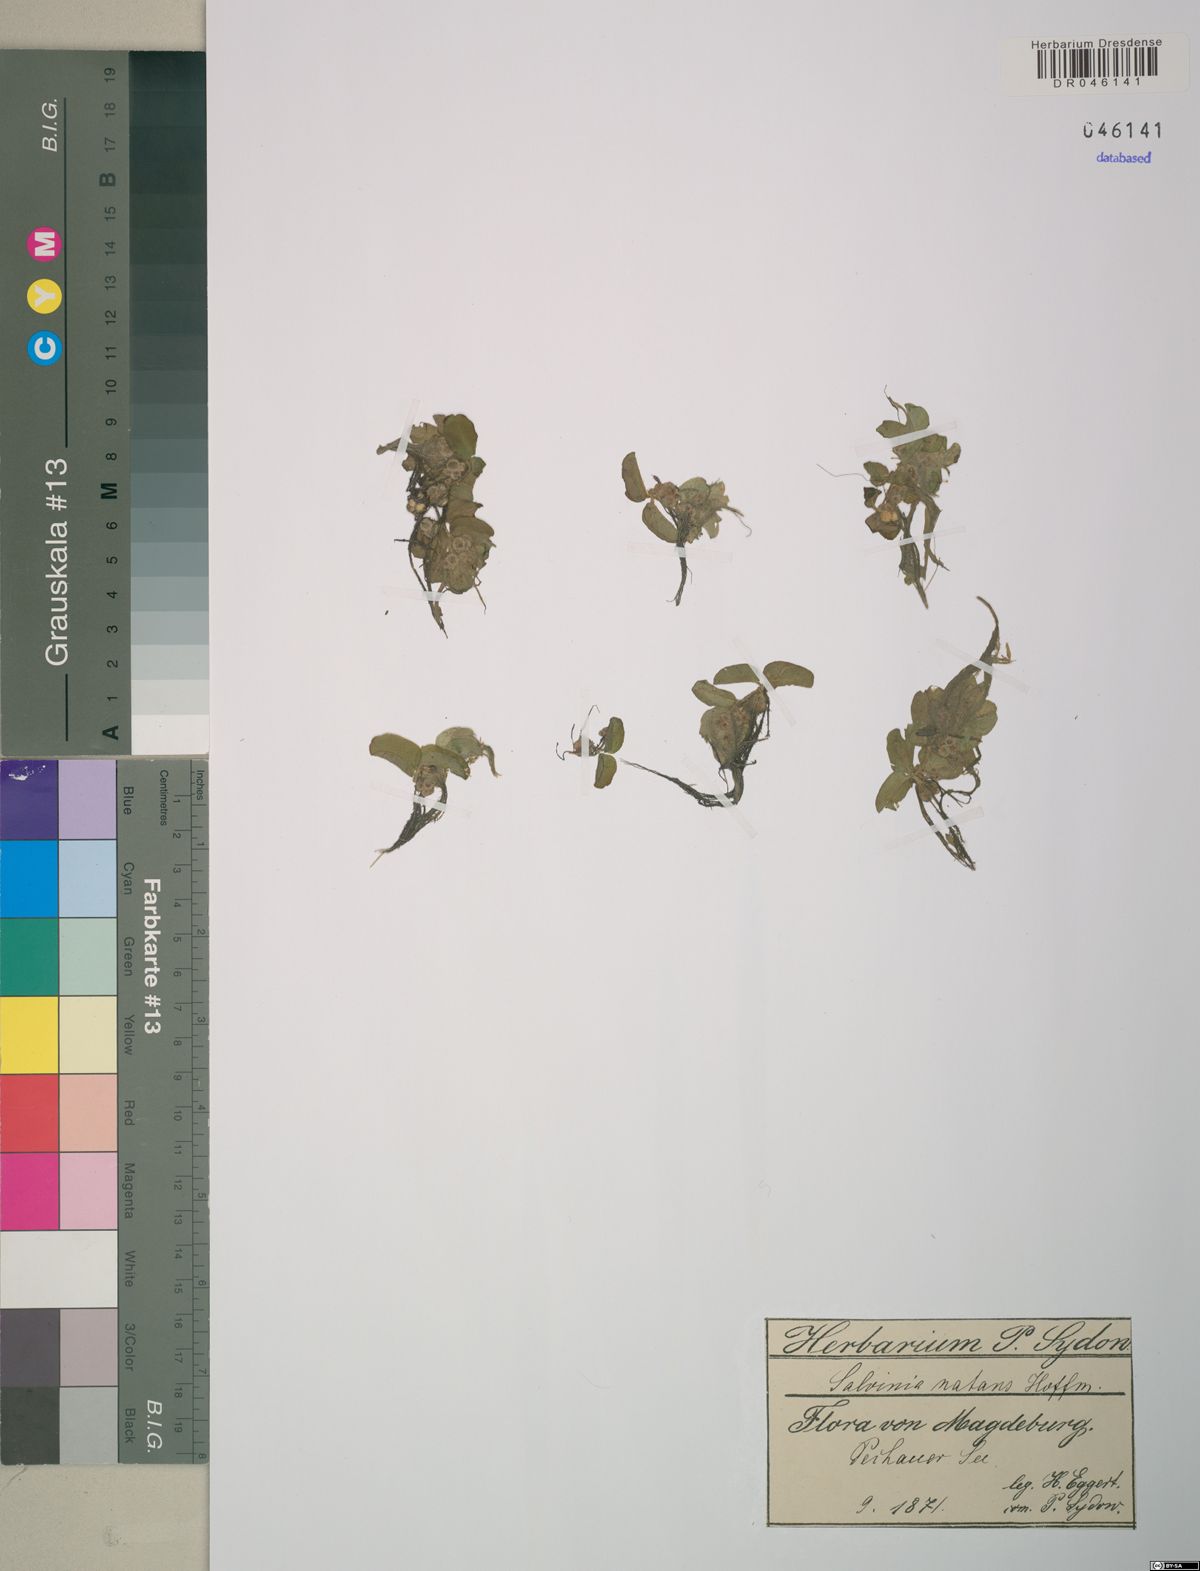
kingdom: Plantae
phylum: Tracheophyta
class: Polypodiopsida
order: Salviniales
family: Salviniaceae
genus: Salvinia
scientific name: Salvinia natans
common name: Floating fern
